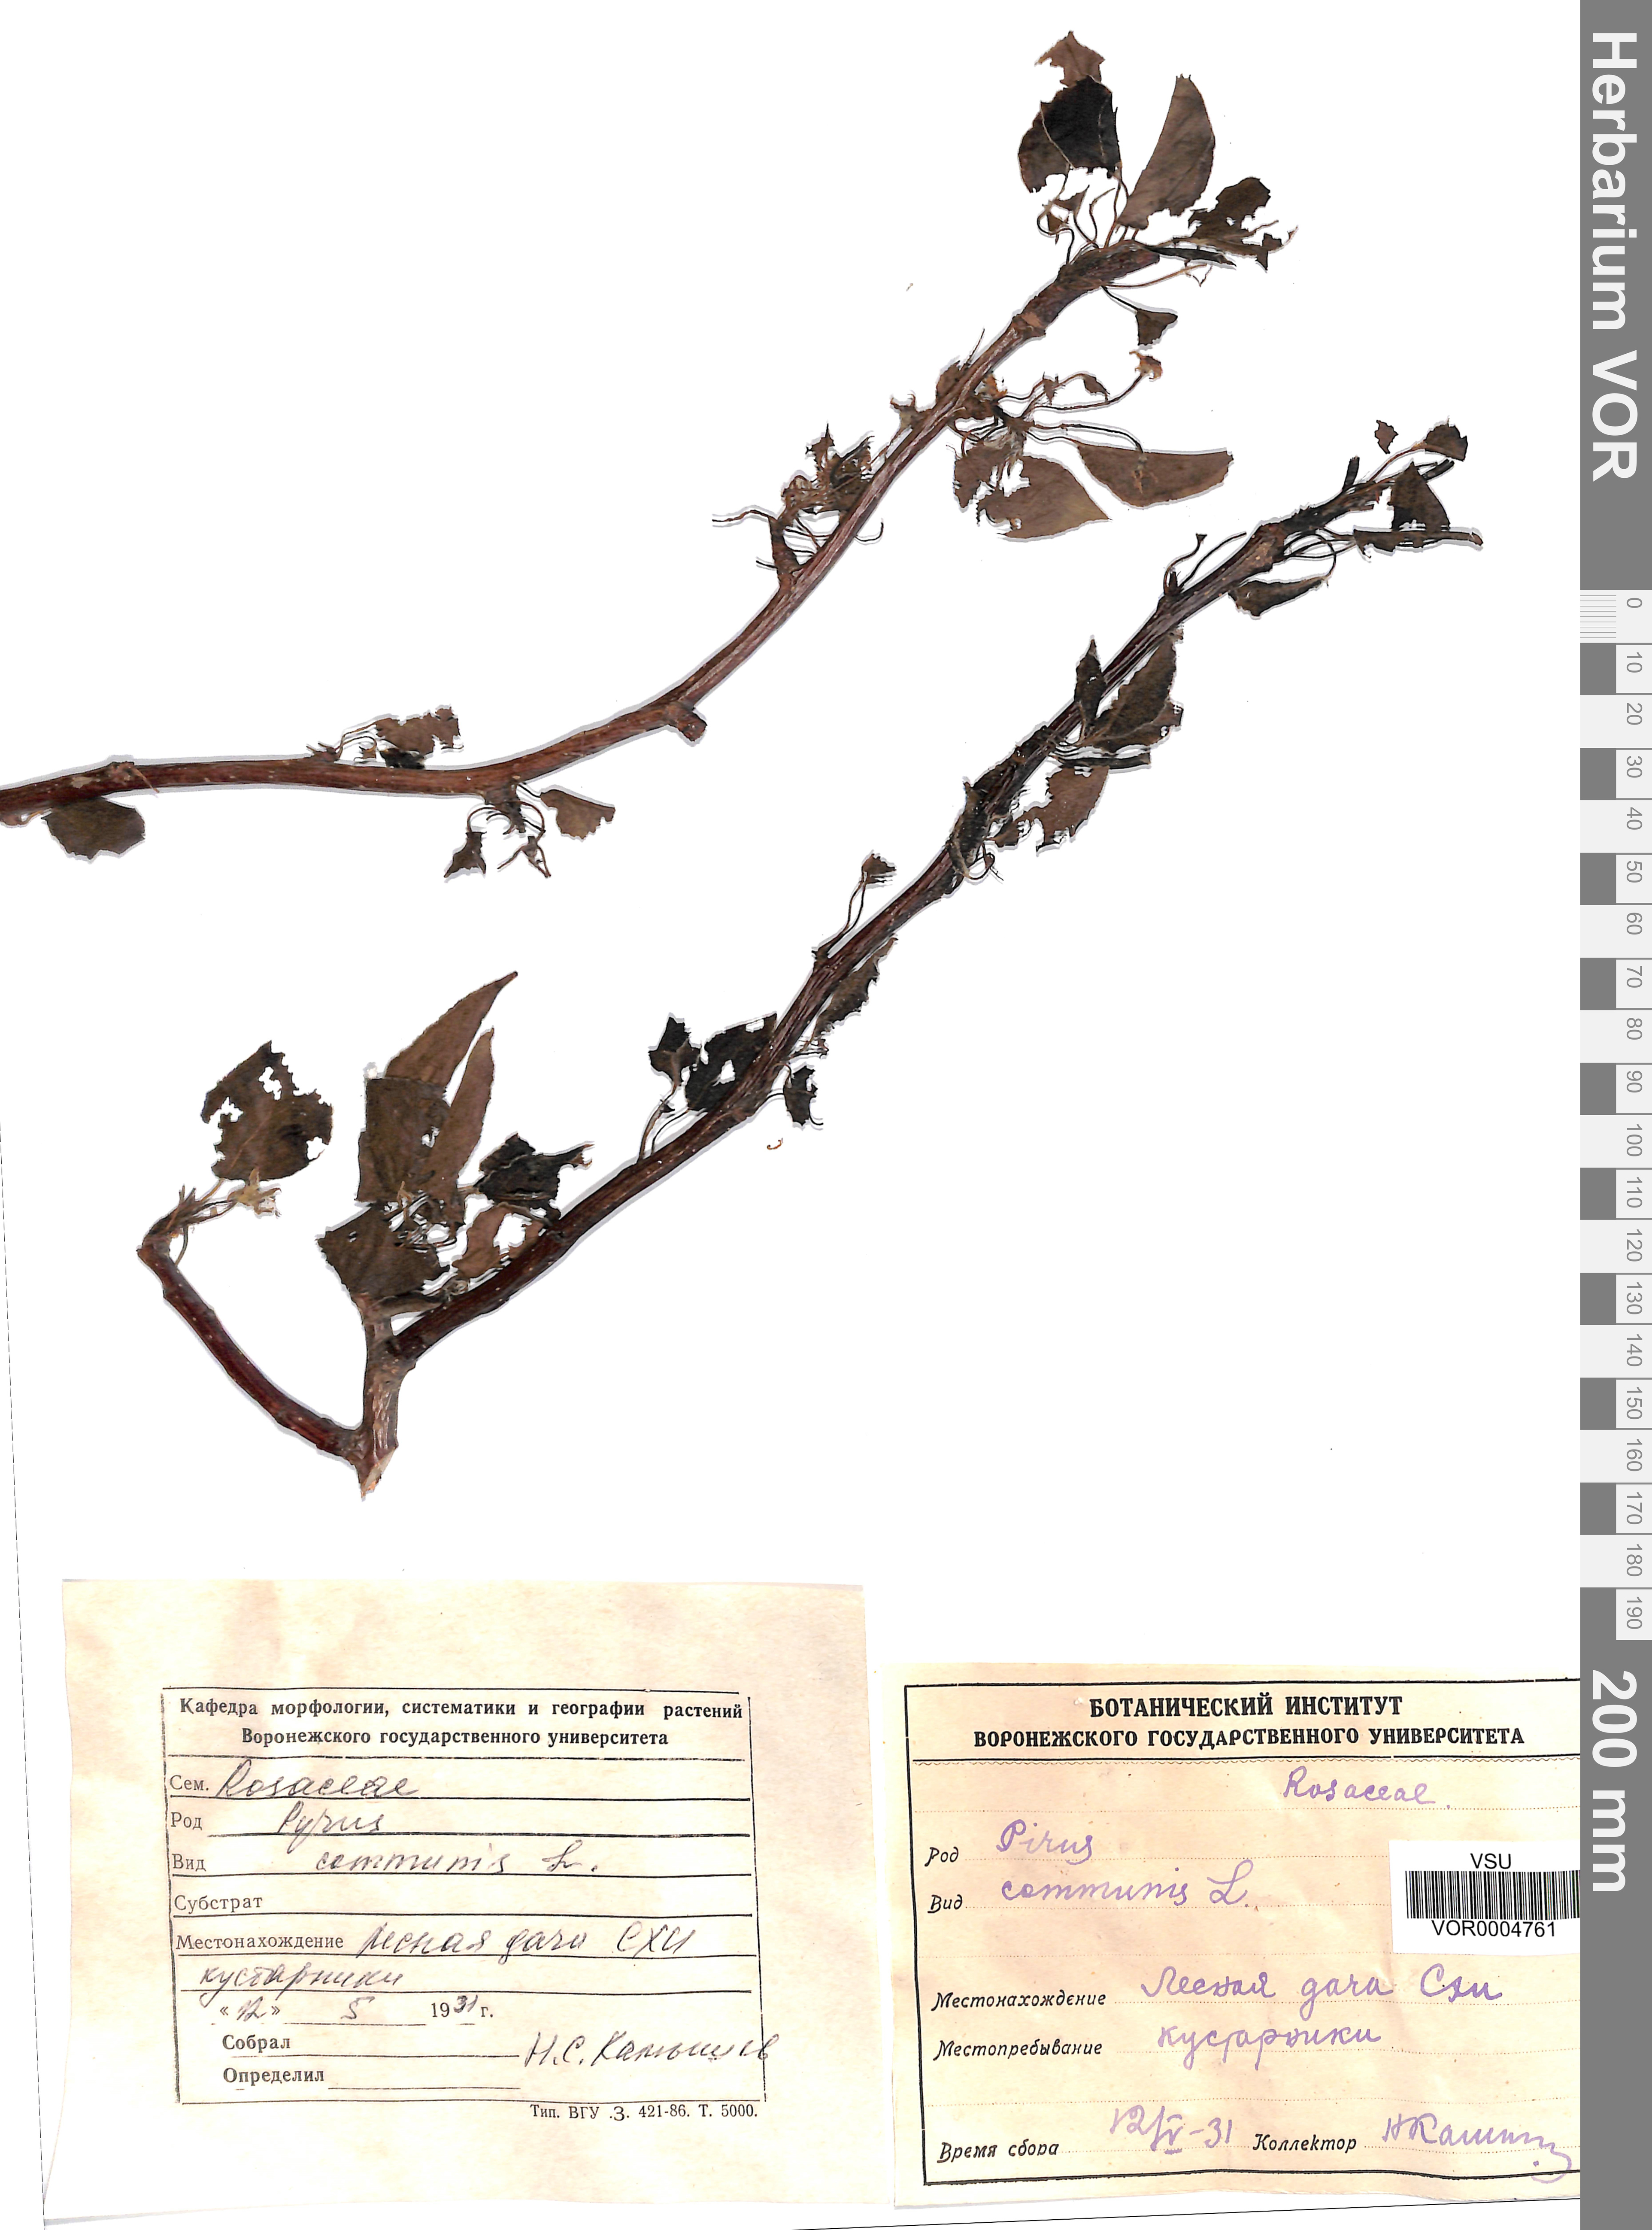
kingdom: Plantae
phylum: Tracheophyta
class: Magnoliopsida
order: Rosales
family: Rosaceae
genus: Pyrus
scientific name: Pyrus communis
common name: Pear
